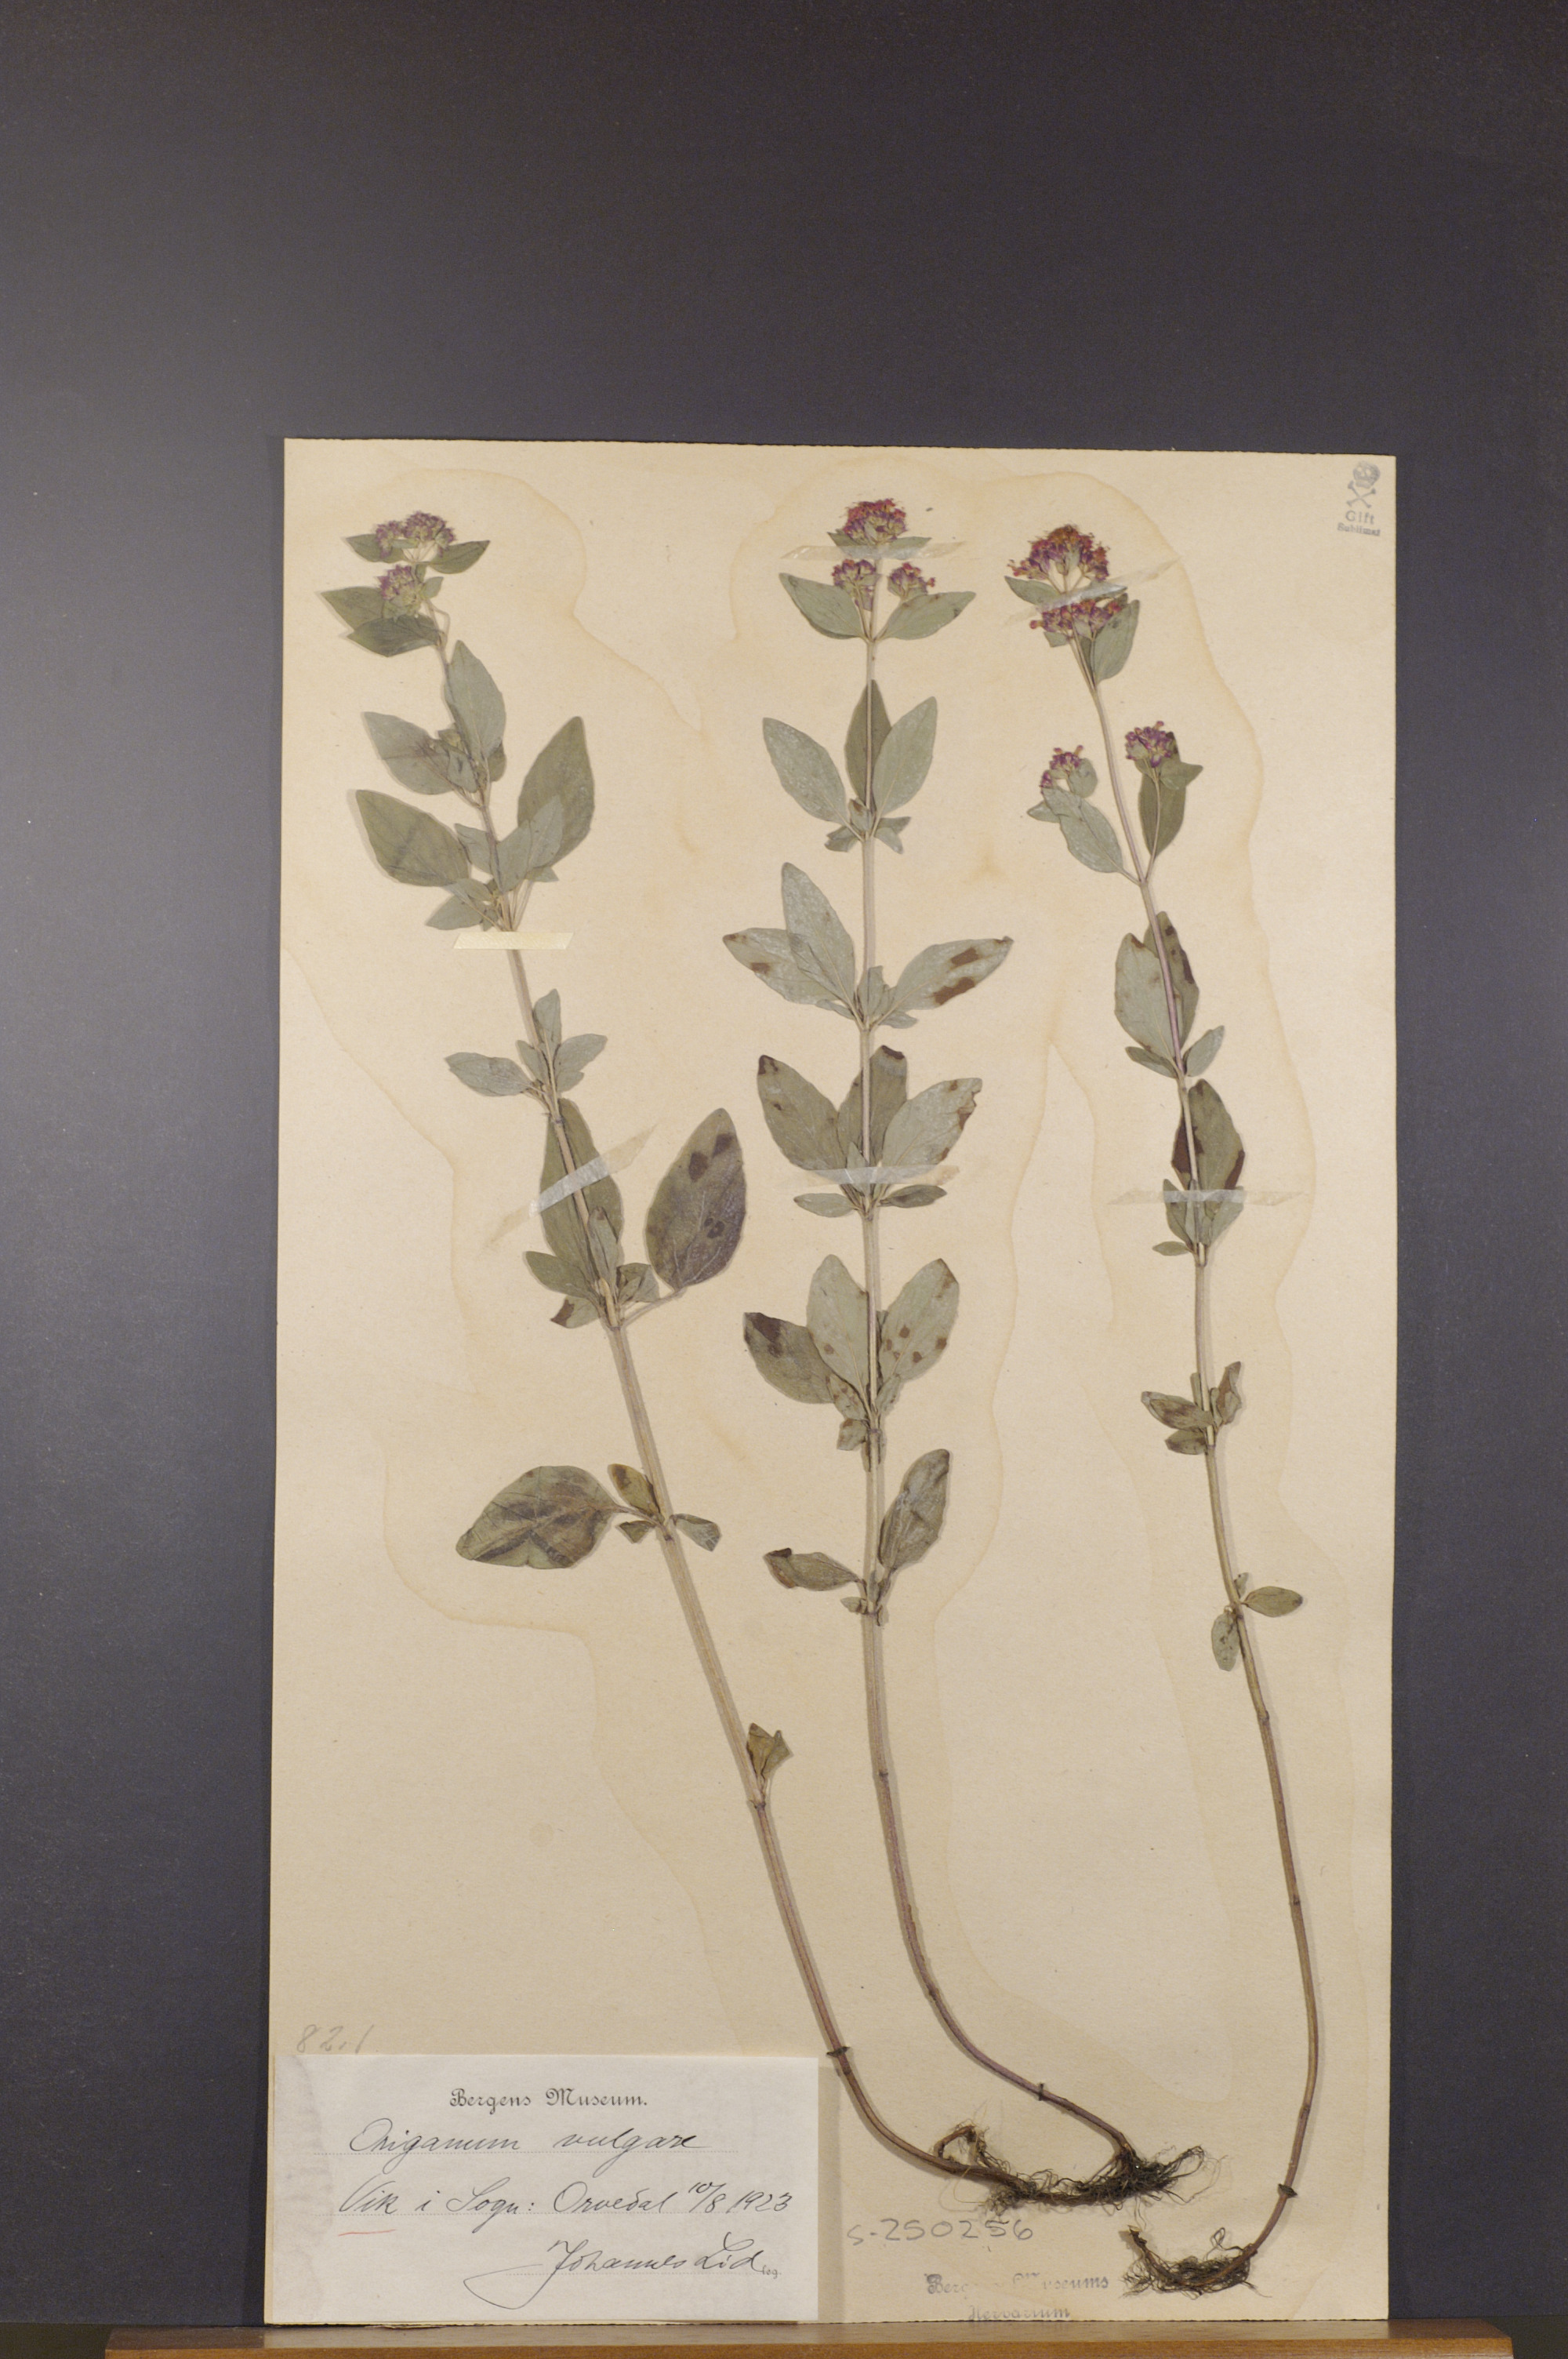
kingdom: Plantae
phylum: Tracheophyta
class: Magnoliopsida
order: Lamiales
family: Lamiaceae
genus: Origanum
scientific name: Origanum vulgare
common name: Wild marjoram
